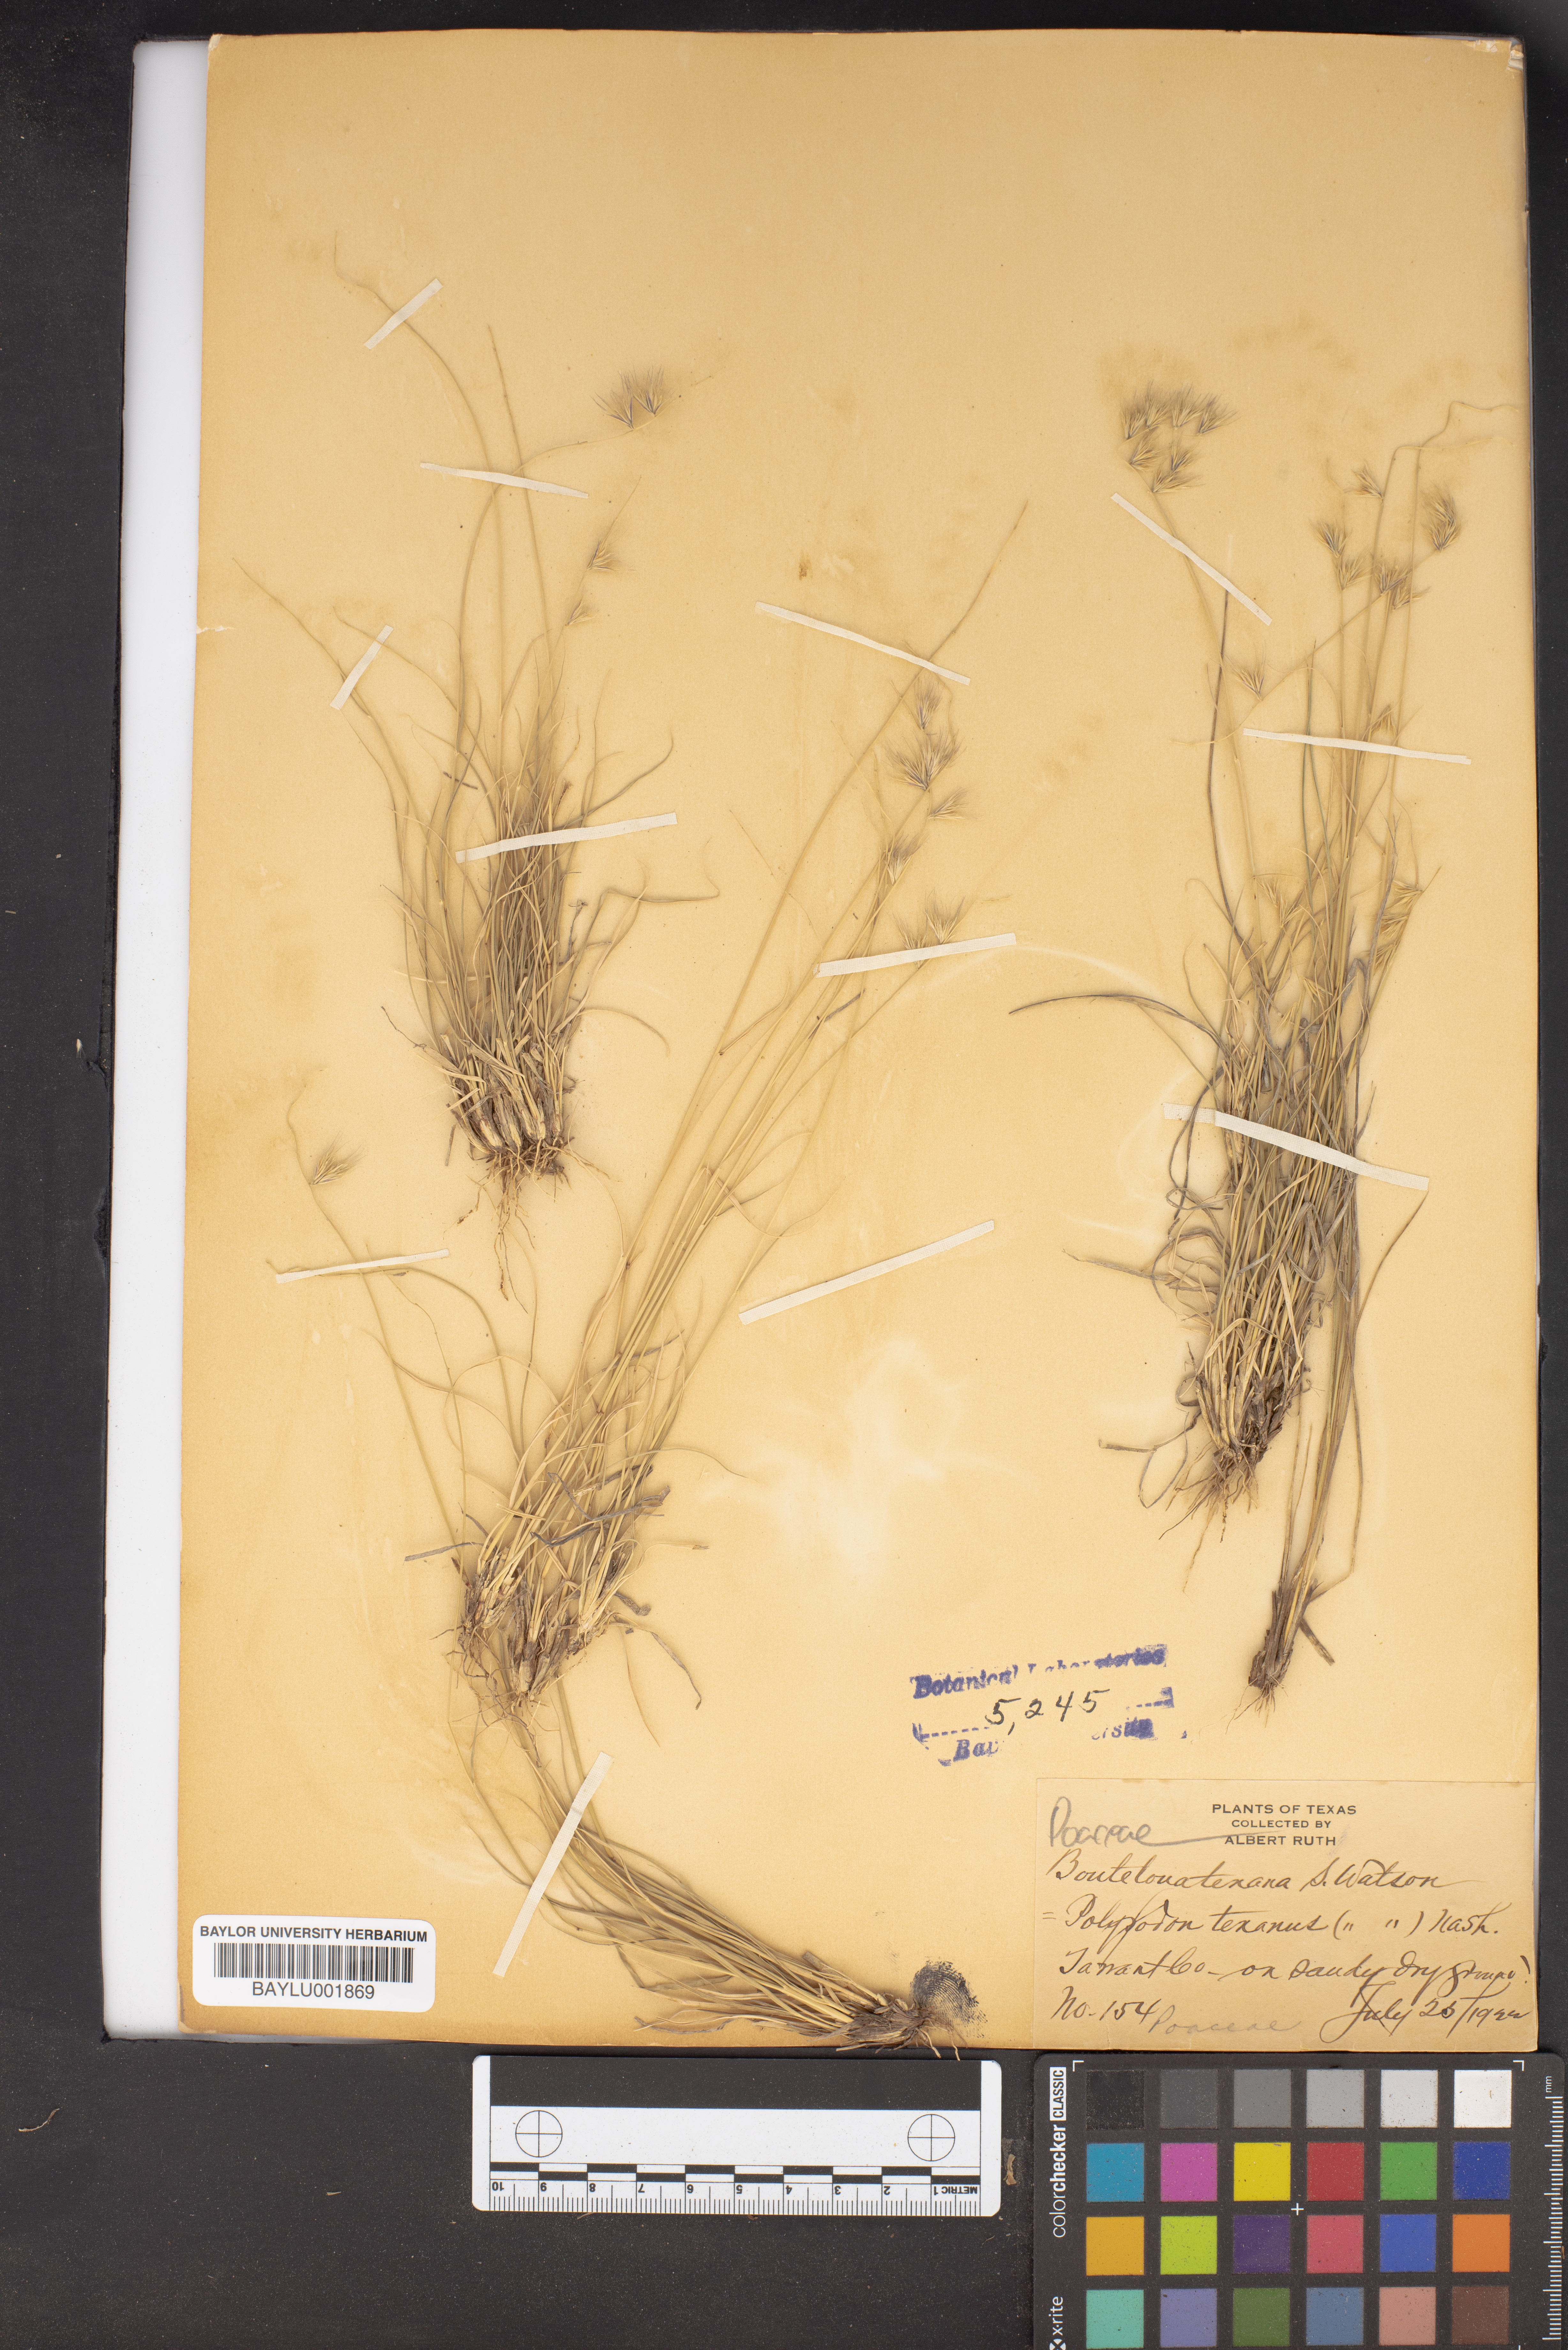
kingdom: Plantae
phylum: Tracheophyta
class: Liliopsida
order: Poales
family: Poaceae
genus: Bouteloua
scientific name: Bouteloua rigidiseta
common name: Texas grama
